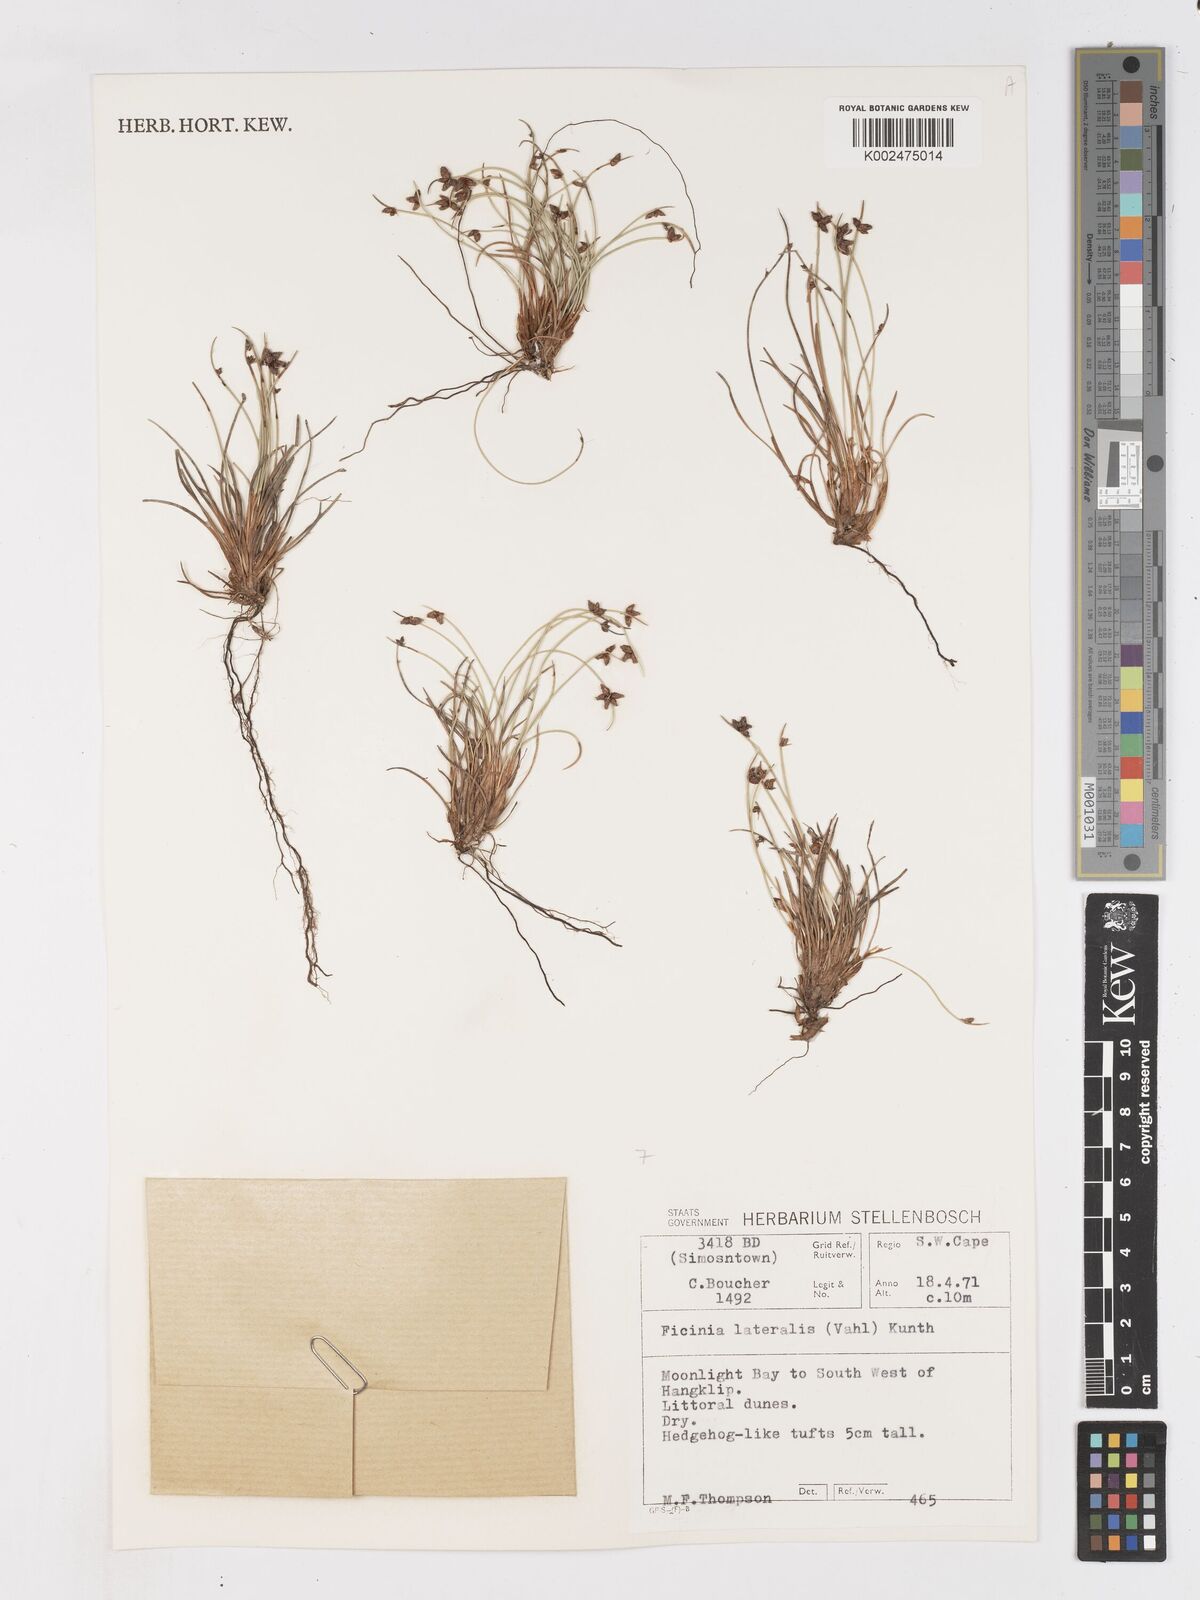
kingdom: Plantae
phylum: Tracheophyta
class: Liliopsida
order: Poales
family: Cyperaceae
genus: Ficinia
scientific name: Ficinia lateralis
